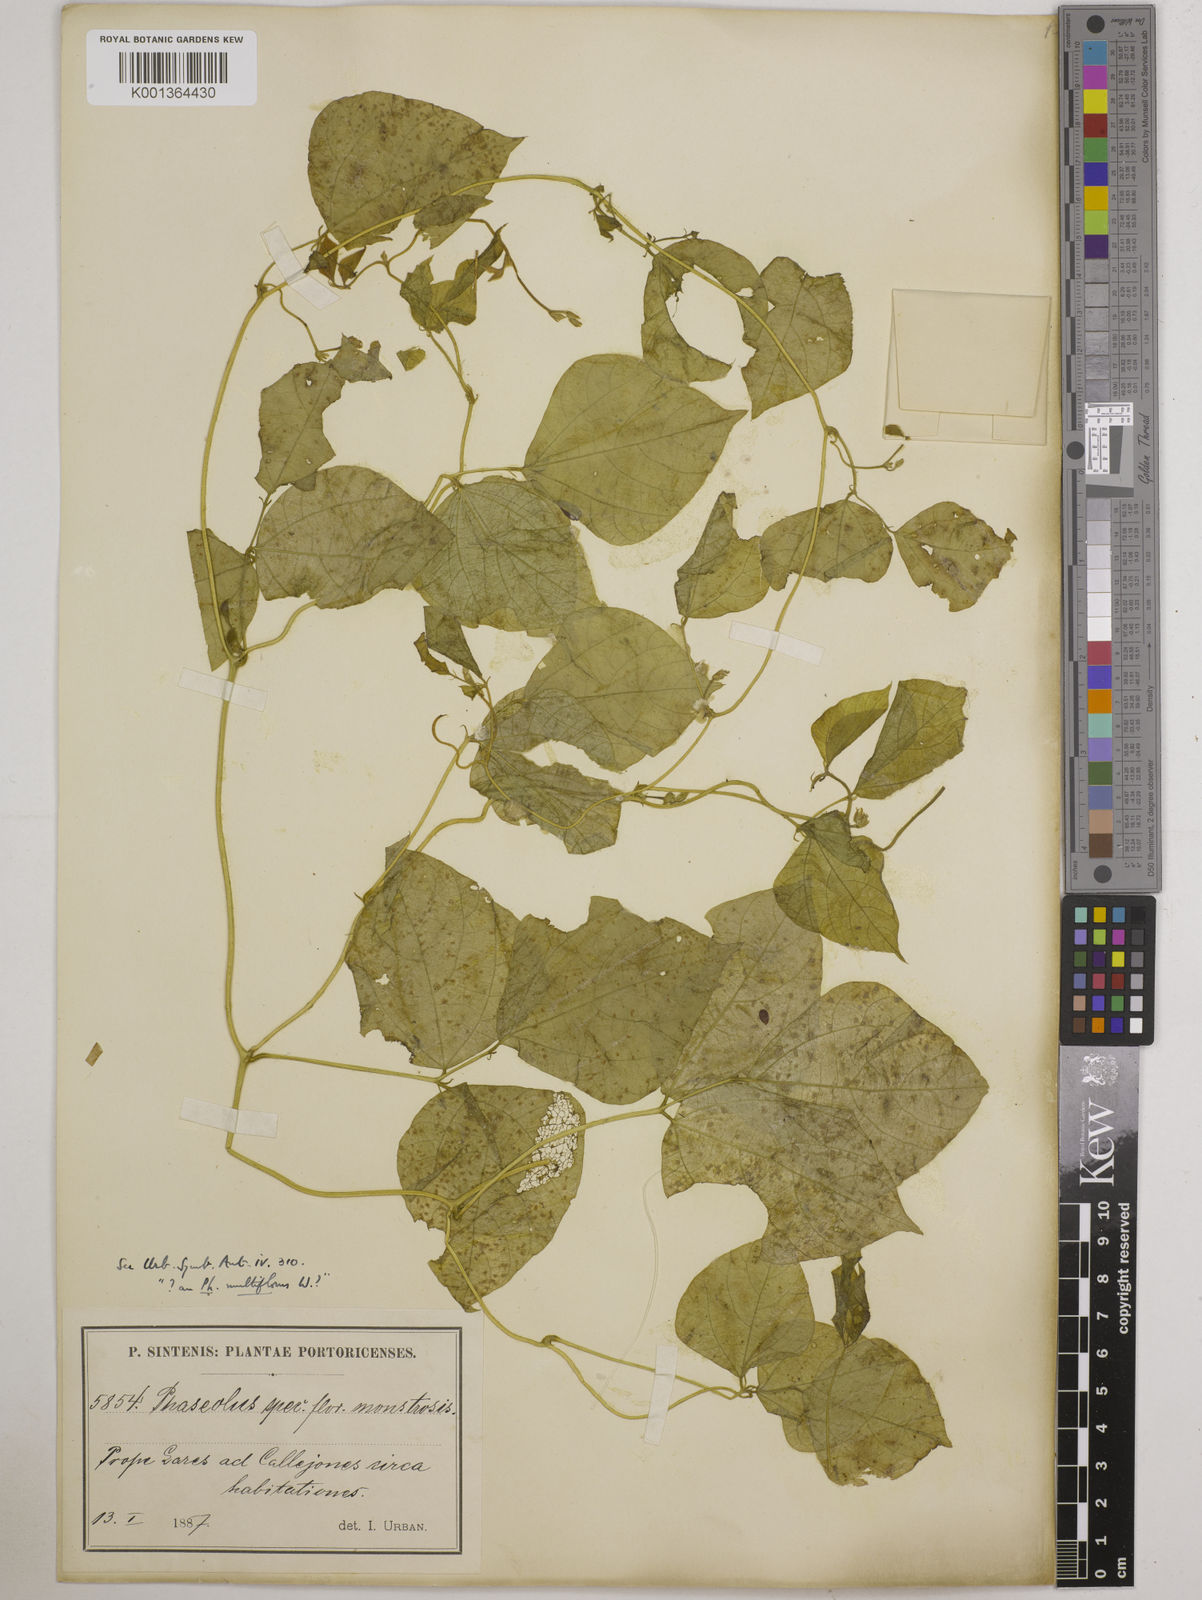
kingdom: Plantae
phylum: Tracheophyta
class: Magnoliopsida
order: Fabales
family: Fabaceae
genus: Phaseolus
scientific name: Phaseolus lunatus
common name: Sieva bean
